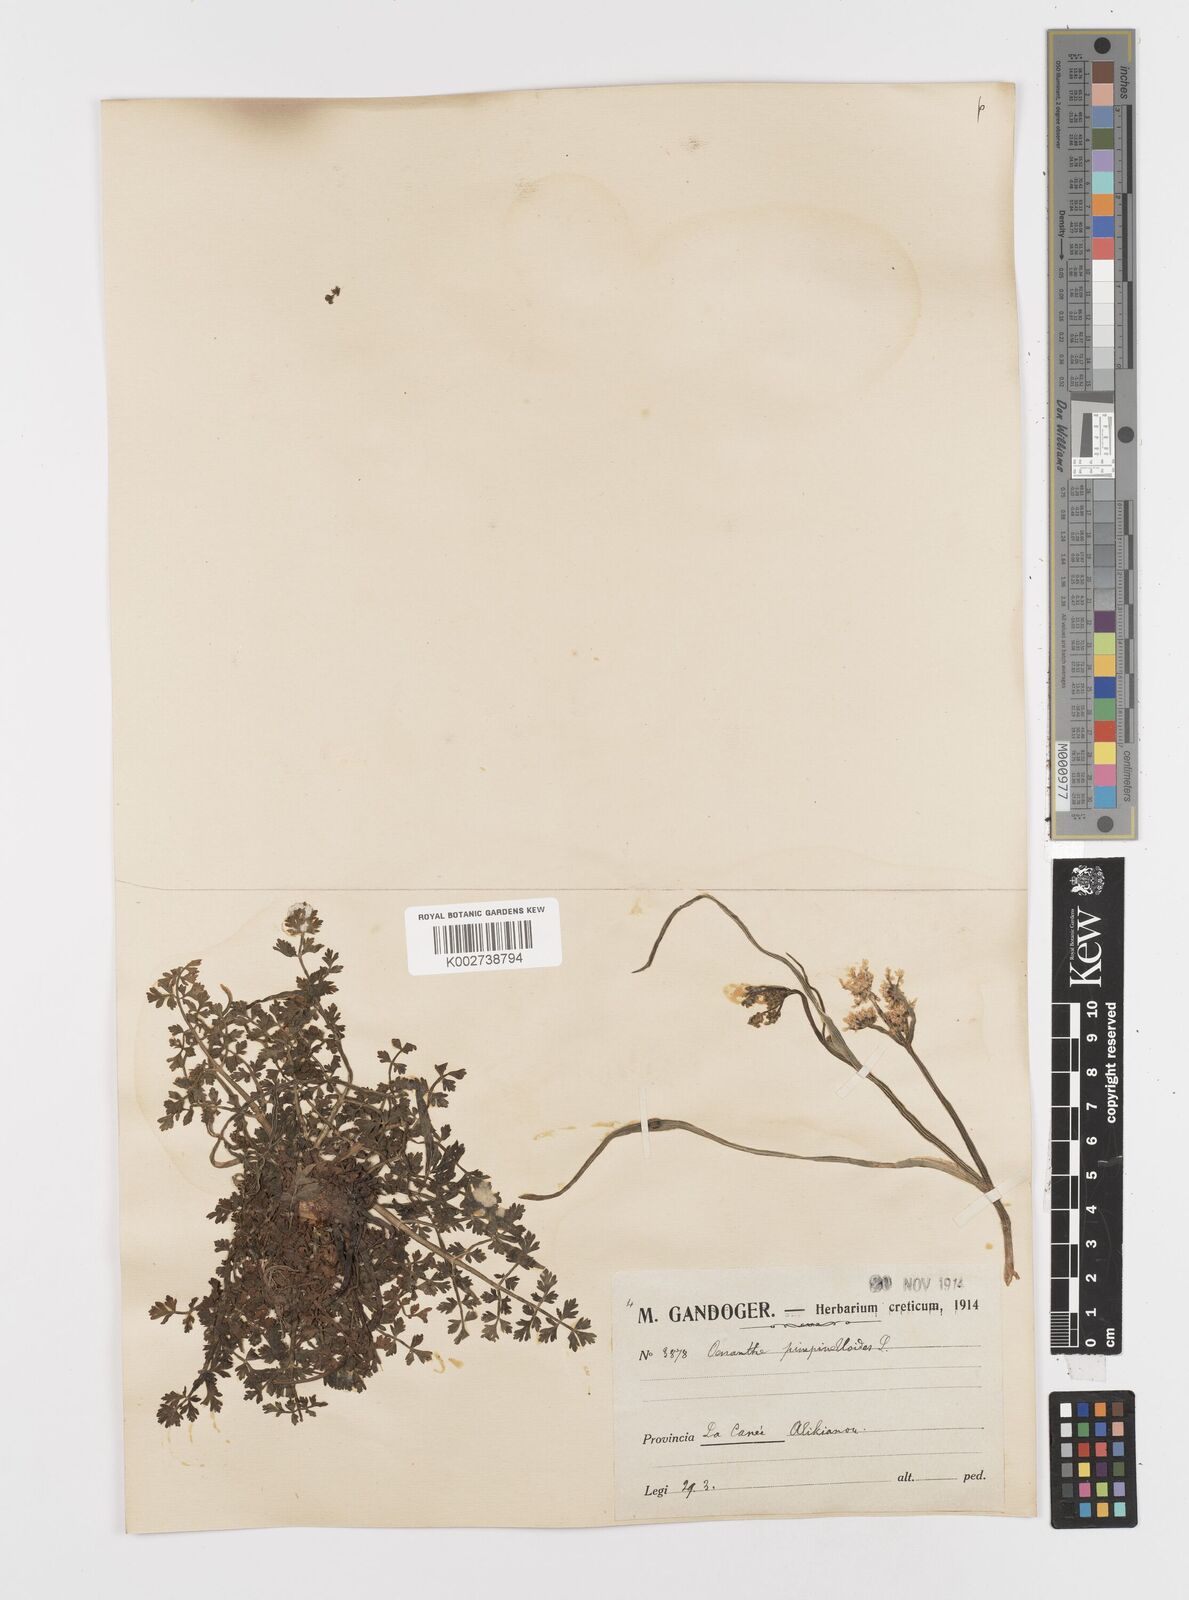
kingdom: Plantae
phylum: Tracheophyta
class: Magnoliopsida
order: Apiales
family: Apiaceae
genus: Oenanthe
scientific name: Oenanthe pimpinelloides
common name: Corky-fruited water-dropwort
